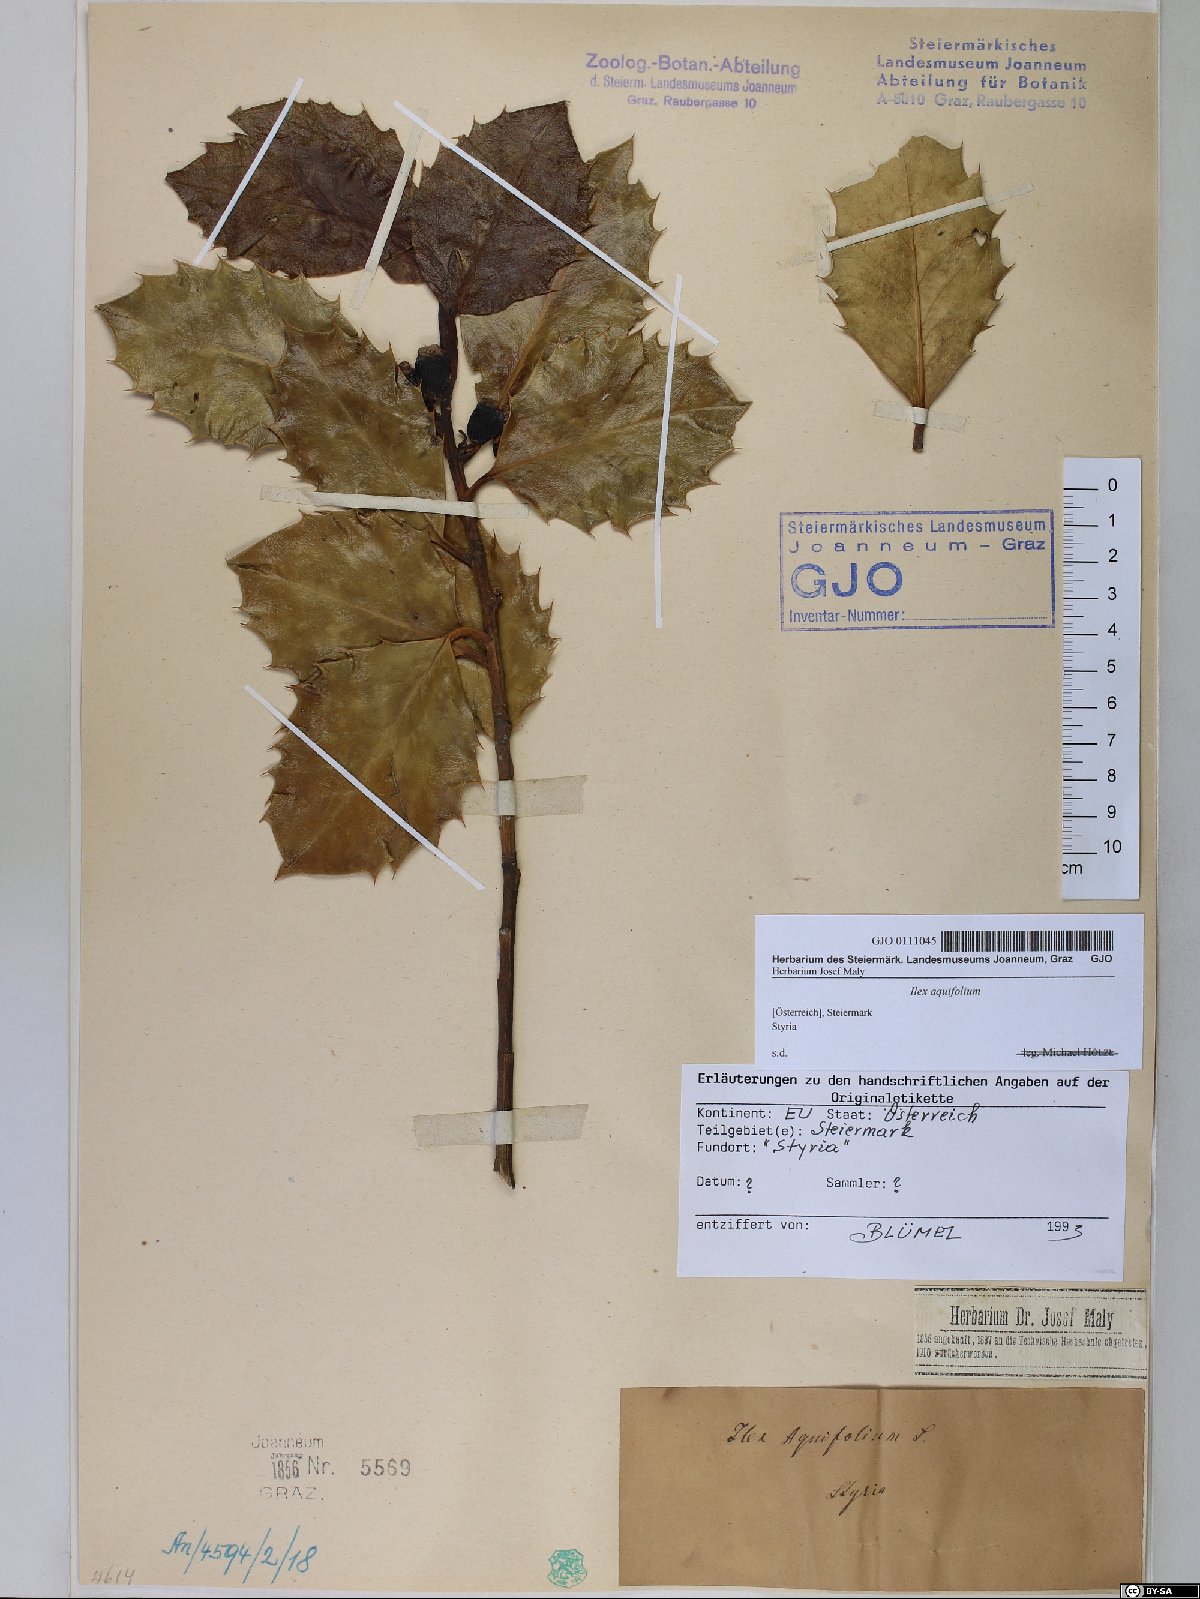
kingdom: Plantae
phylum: Tracheophyta
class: Magnoliopsida
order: Aquifoliales
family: Aquifoliaceae
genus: Ilex
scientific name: Ilex aquifolium
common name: English holly
